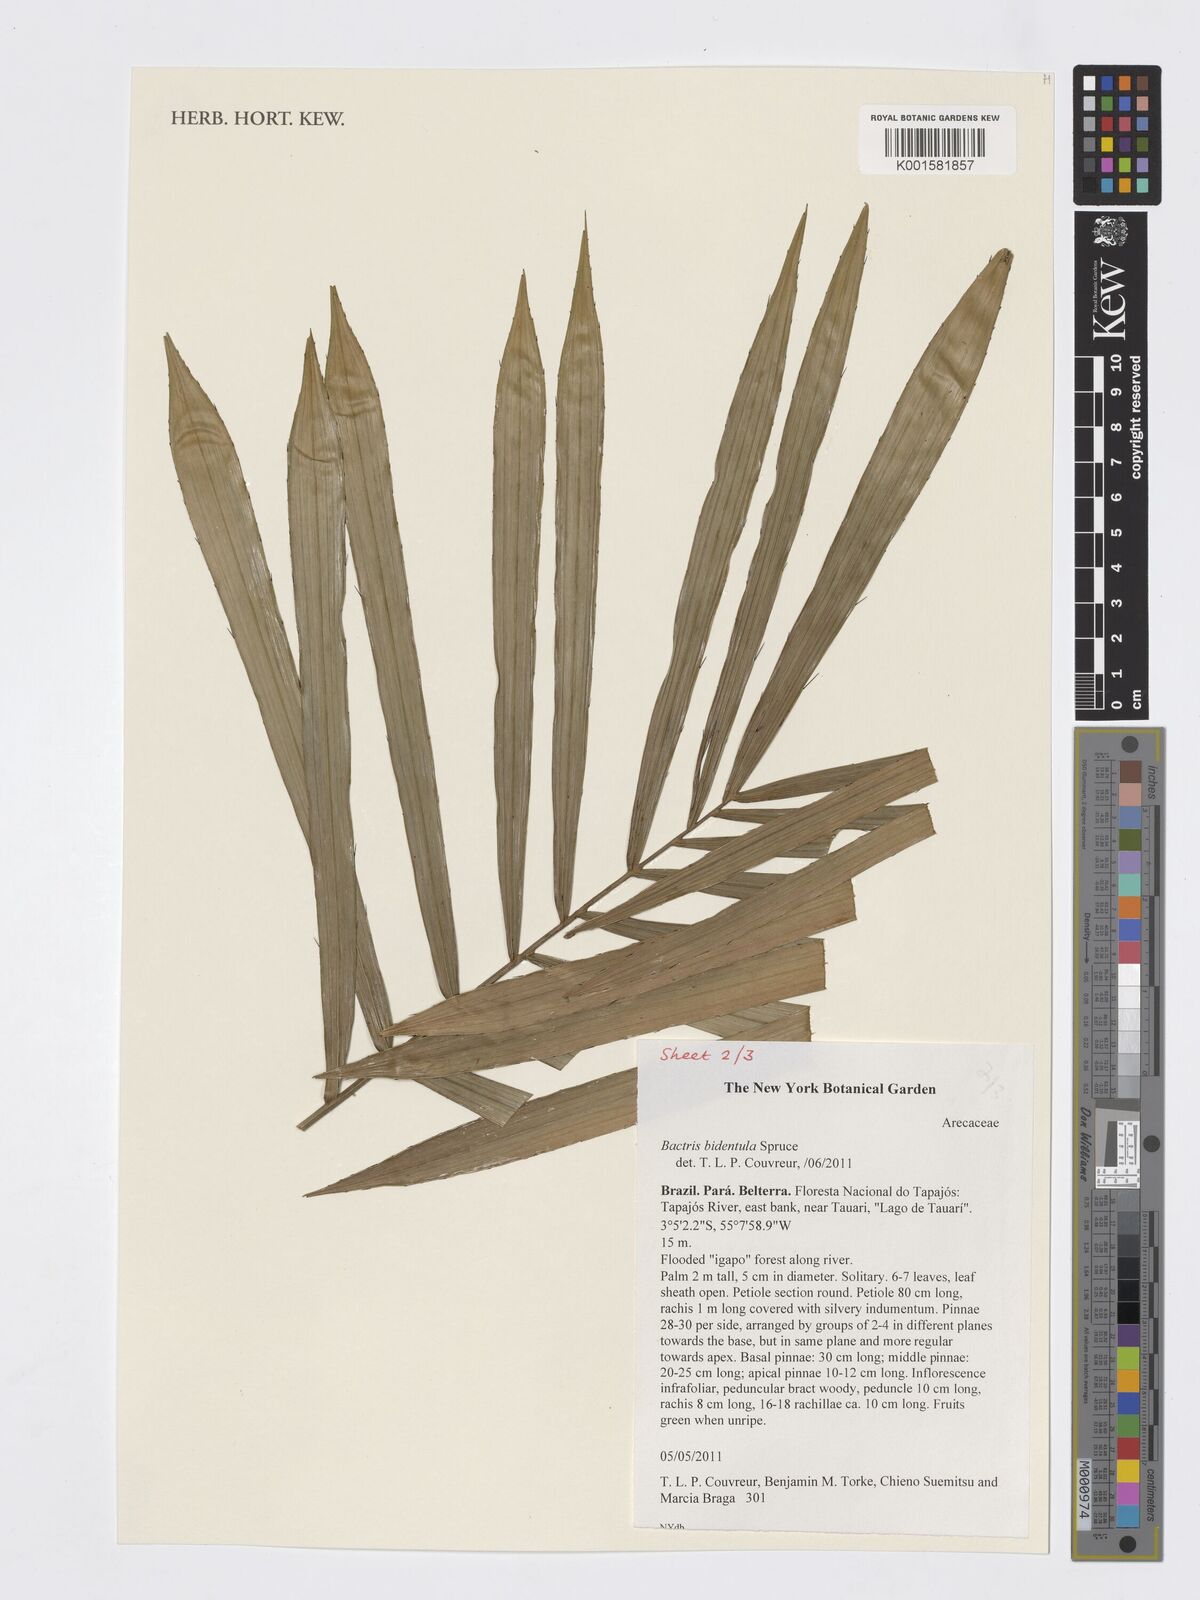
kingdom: Plantae
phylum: Tracheophyta
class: Liliopsida
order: Arecales
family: Arecaceae
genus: Bactris
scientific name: Bactris bidentula
